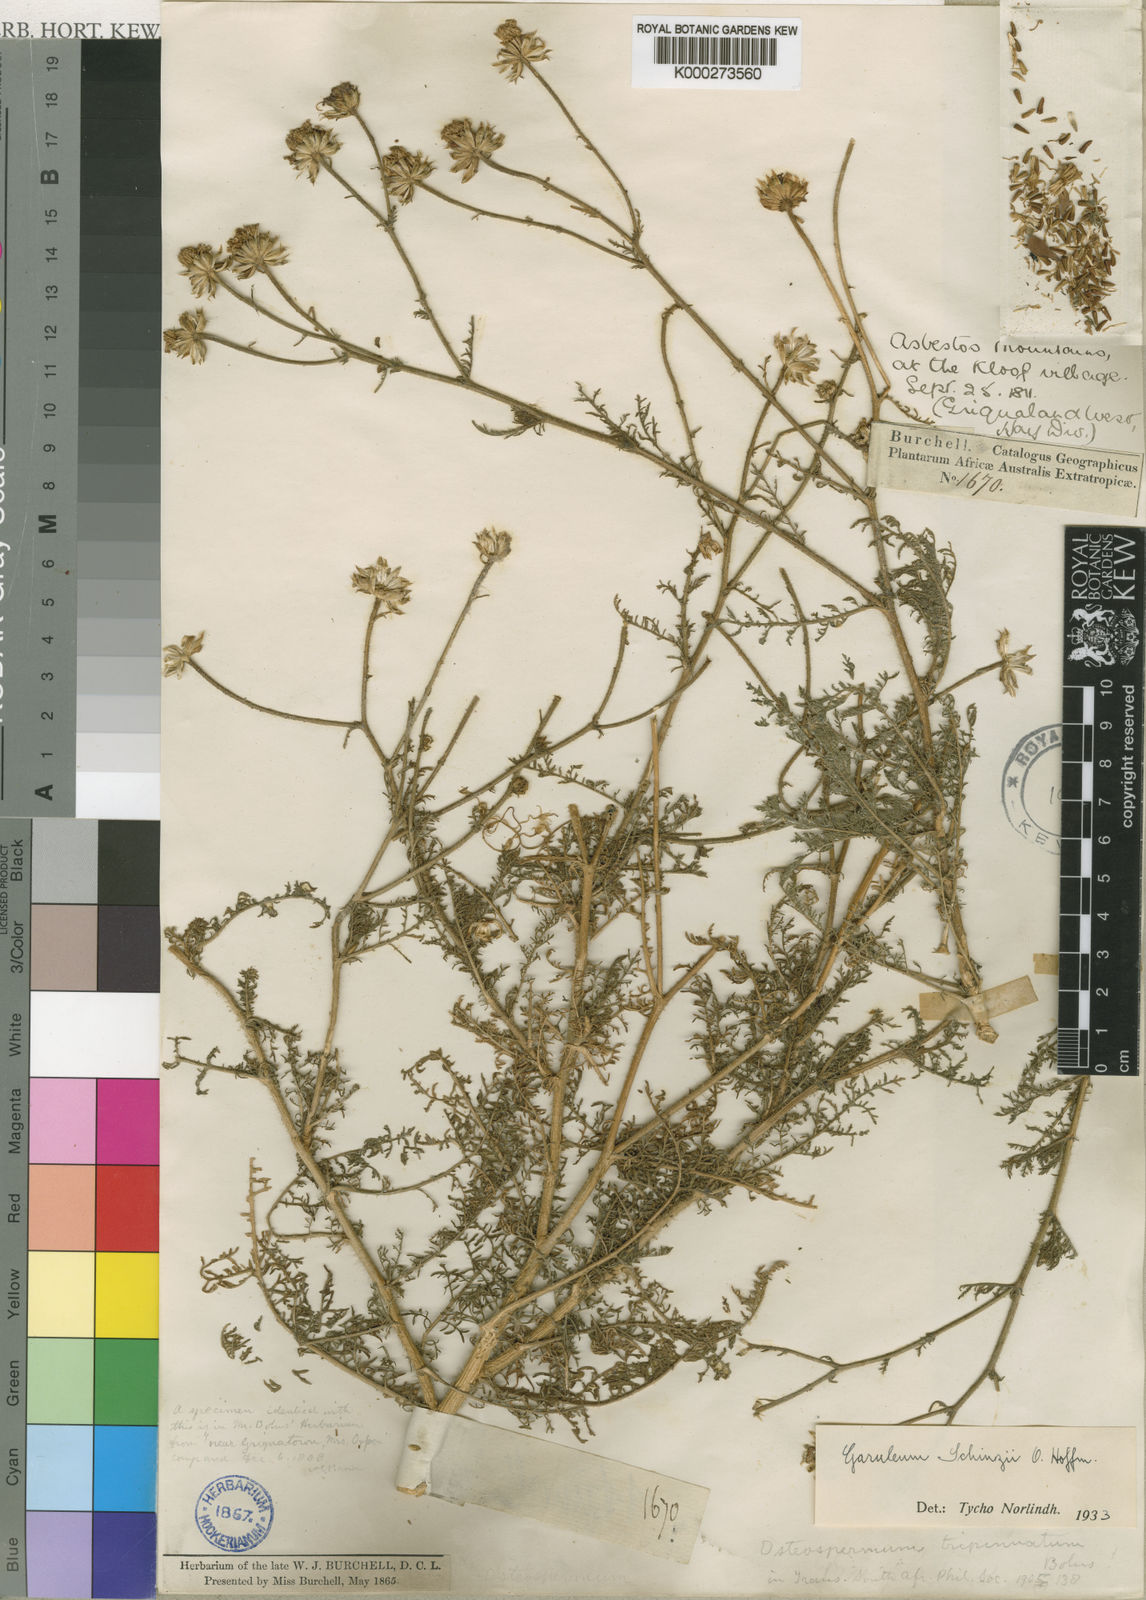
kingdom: Plantae
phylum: Tracheophyta
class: Magnoliopsida
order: Asterales
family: Asteraceae
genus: Garuleum
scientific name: Garuleum schinzii
